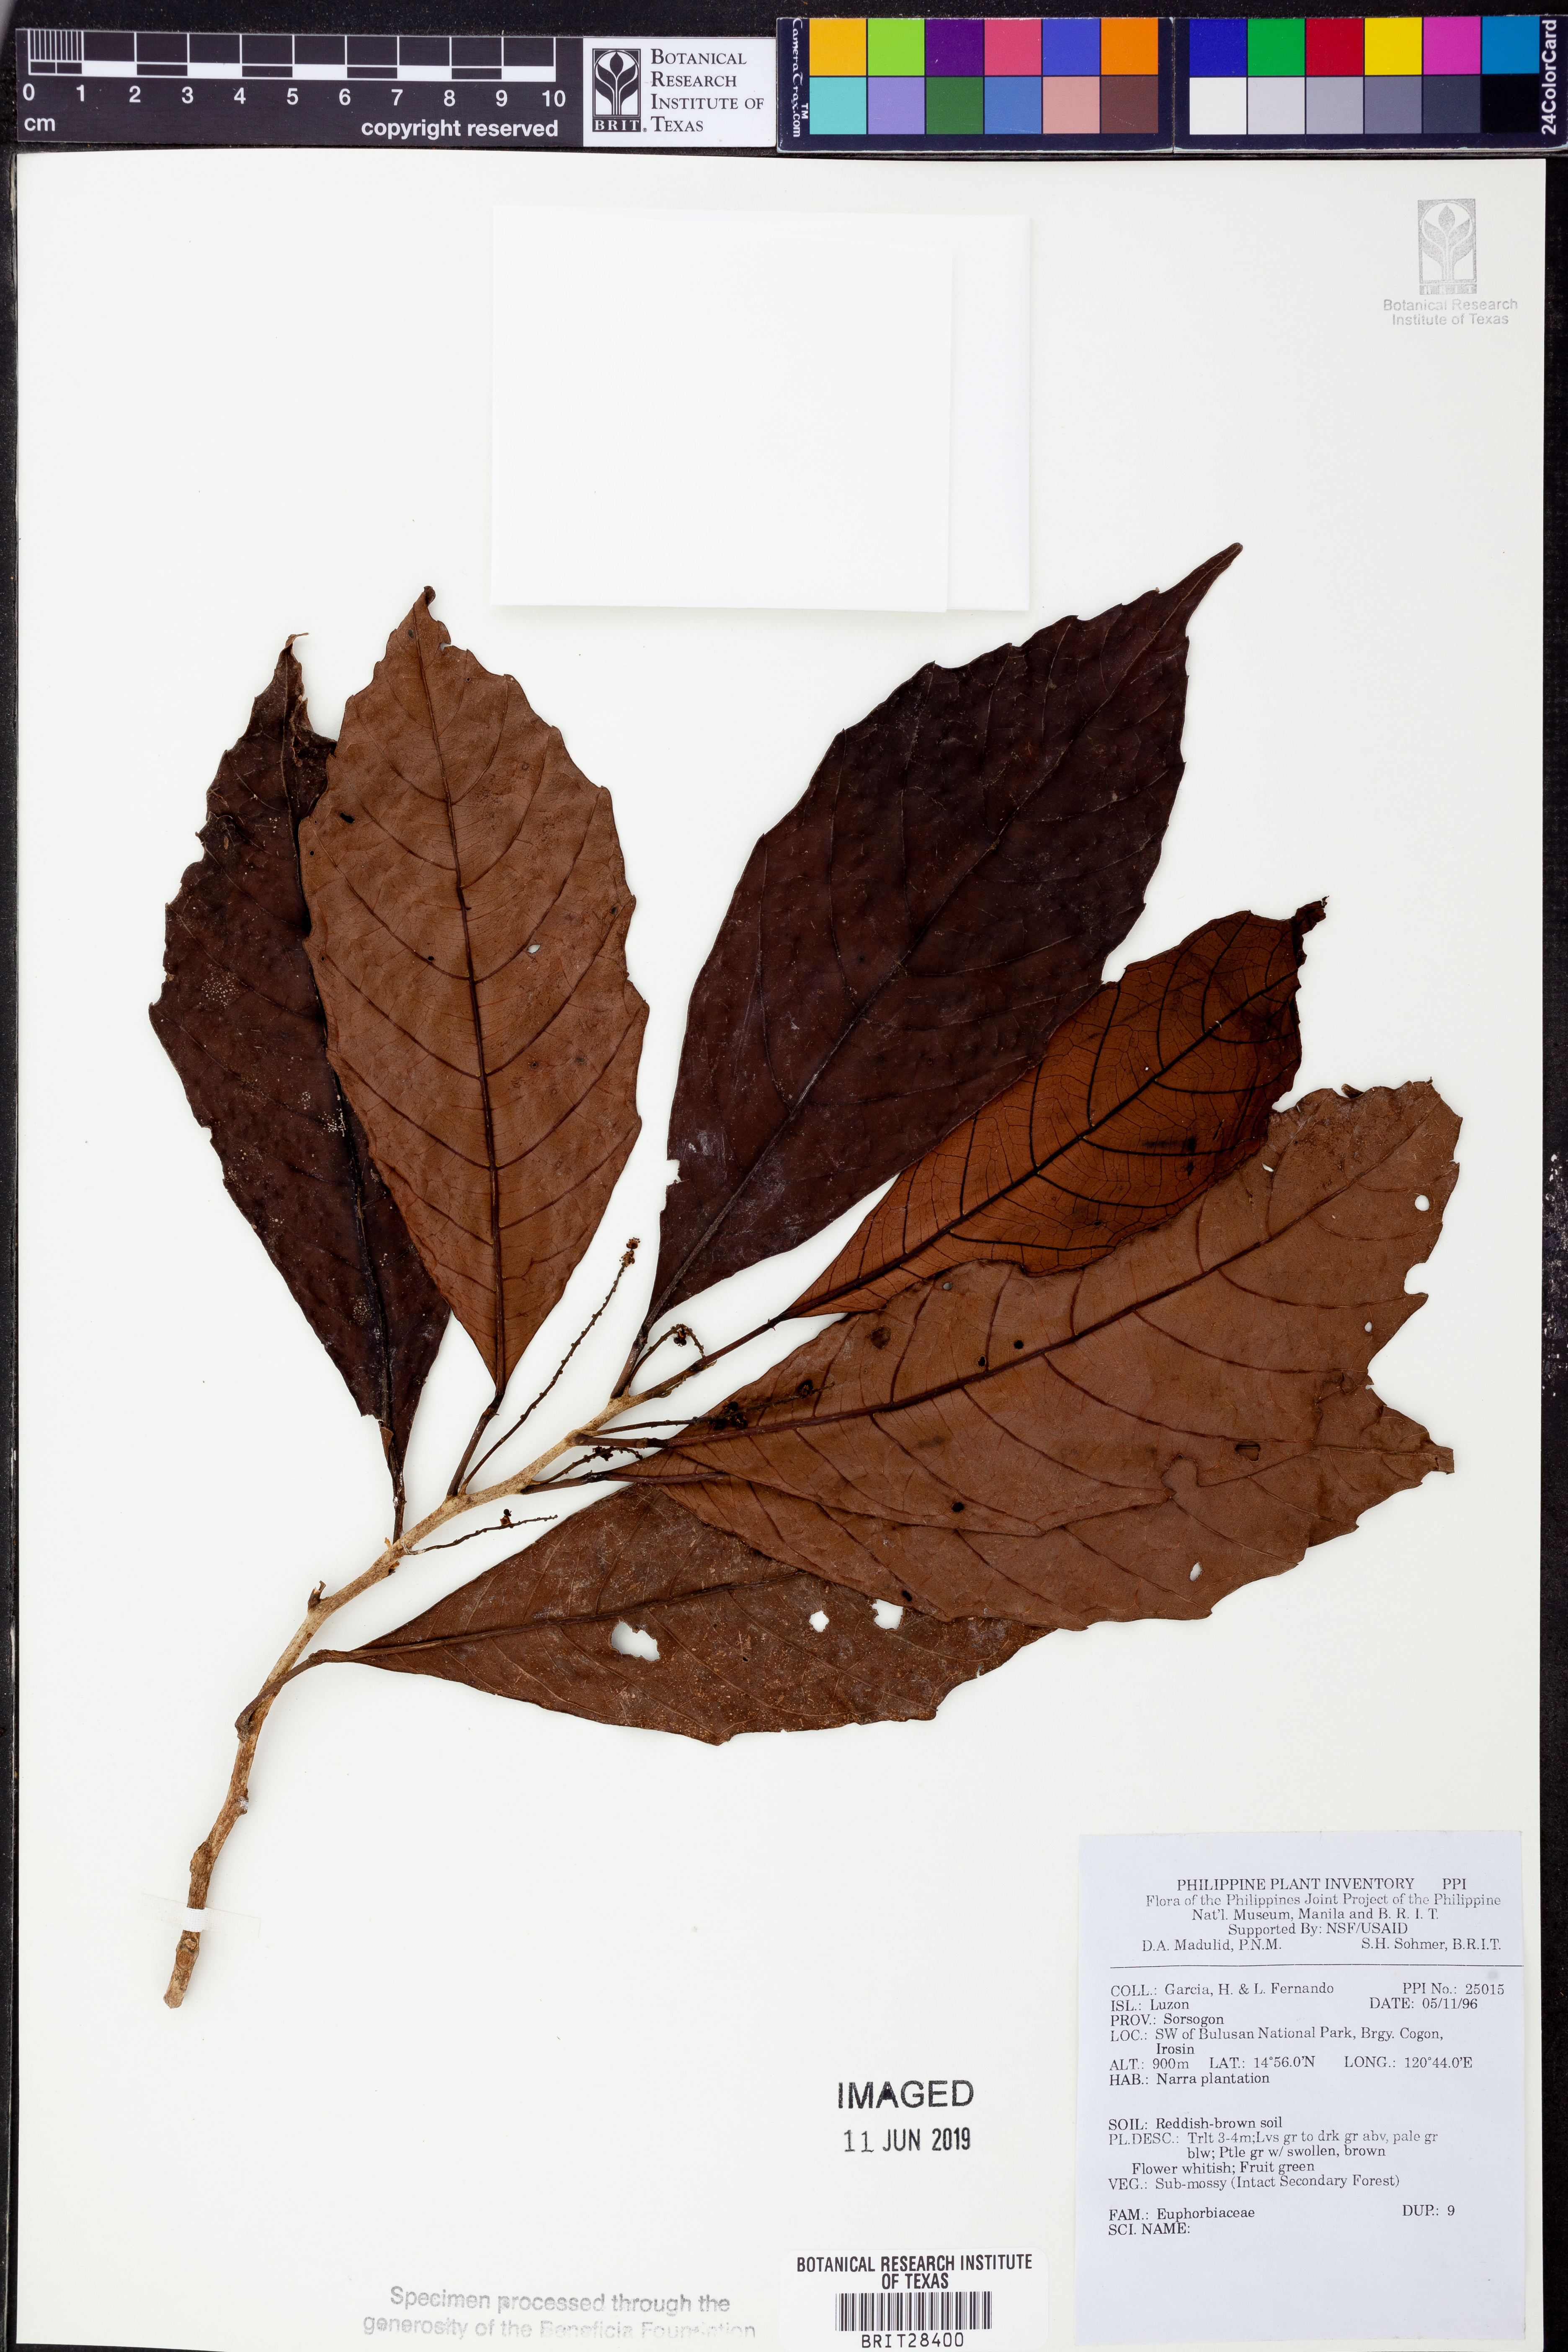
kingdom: Plantae
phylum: Tracheophyta
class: Magnoliopsida
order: Malpighiales
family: Euphorbiaceae
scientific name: Euphorbiaceae
